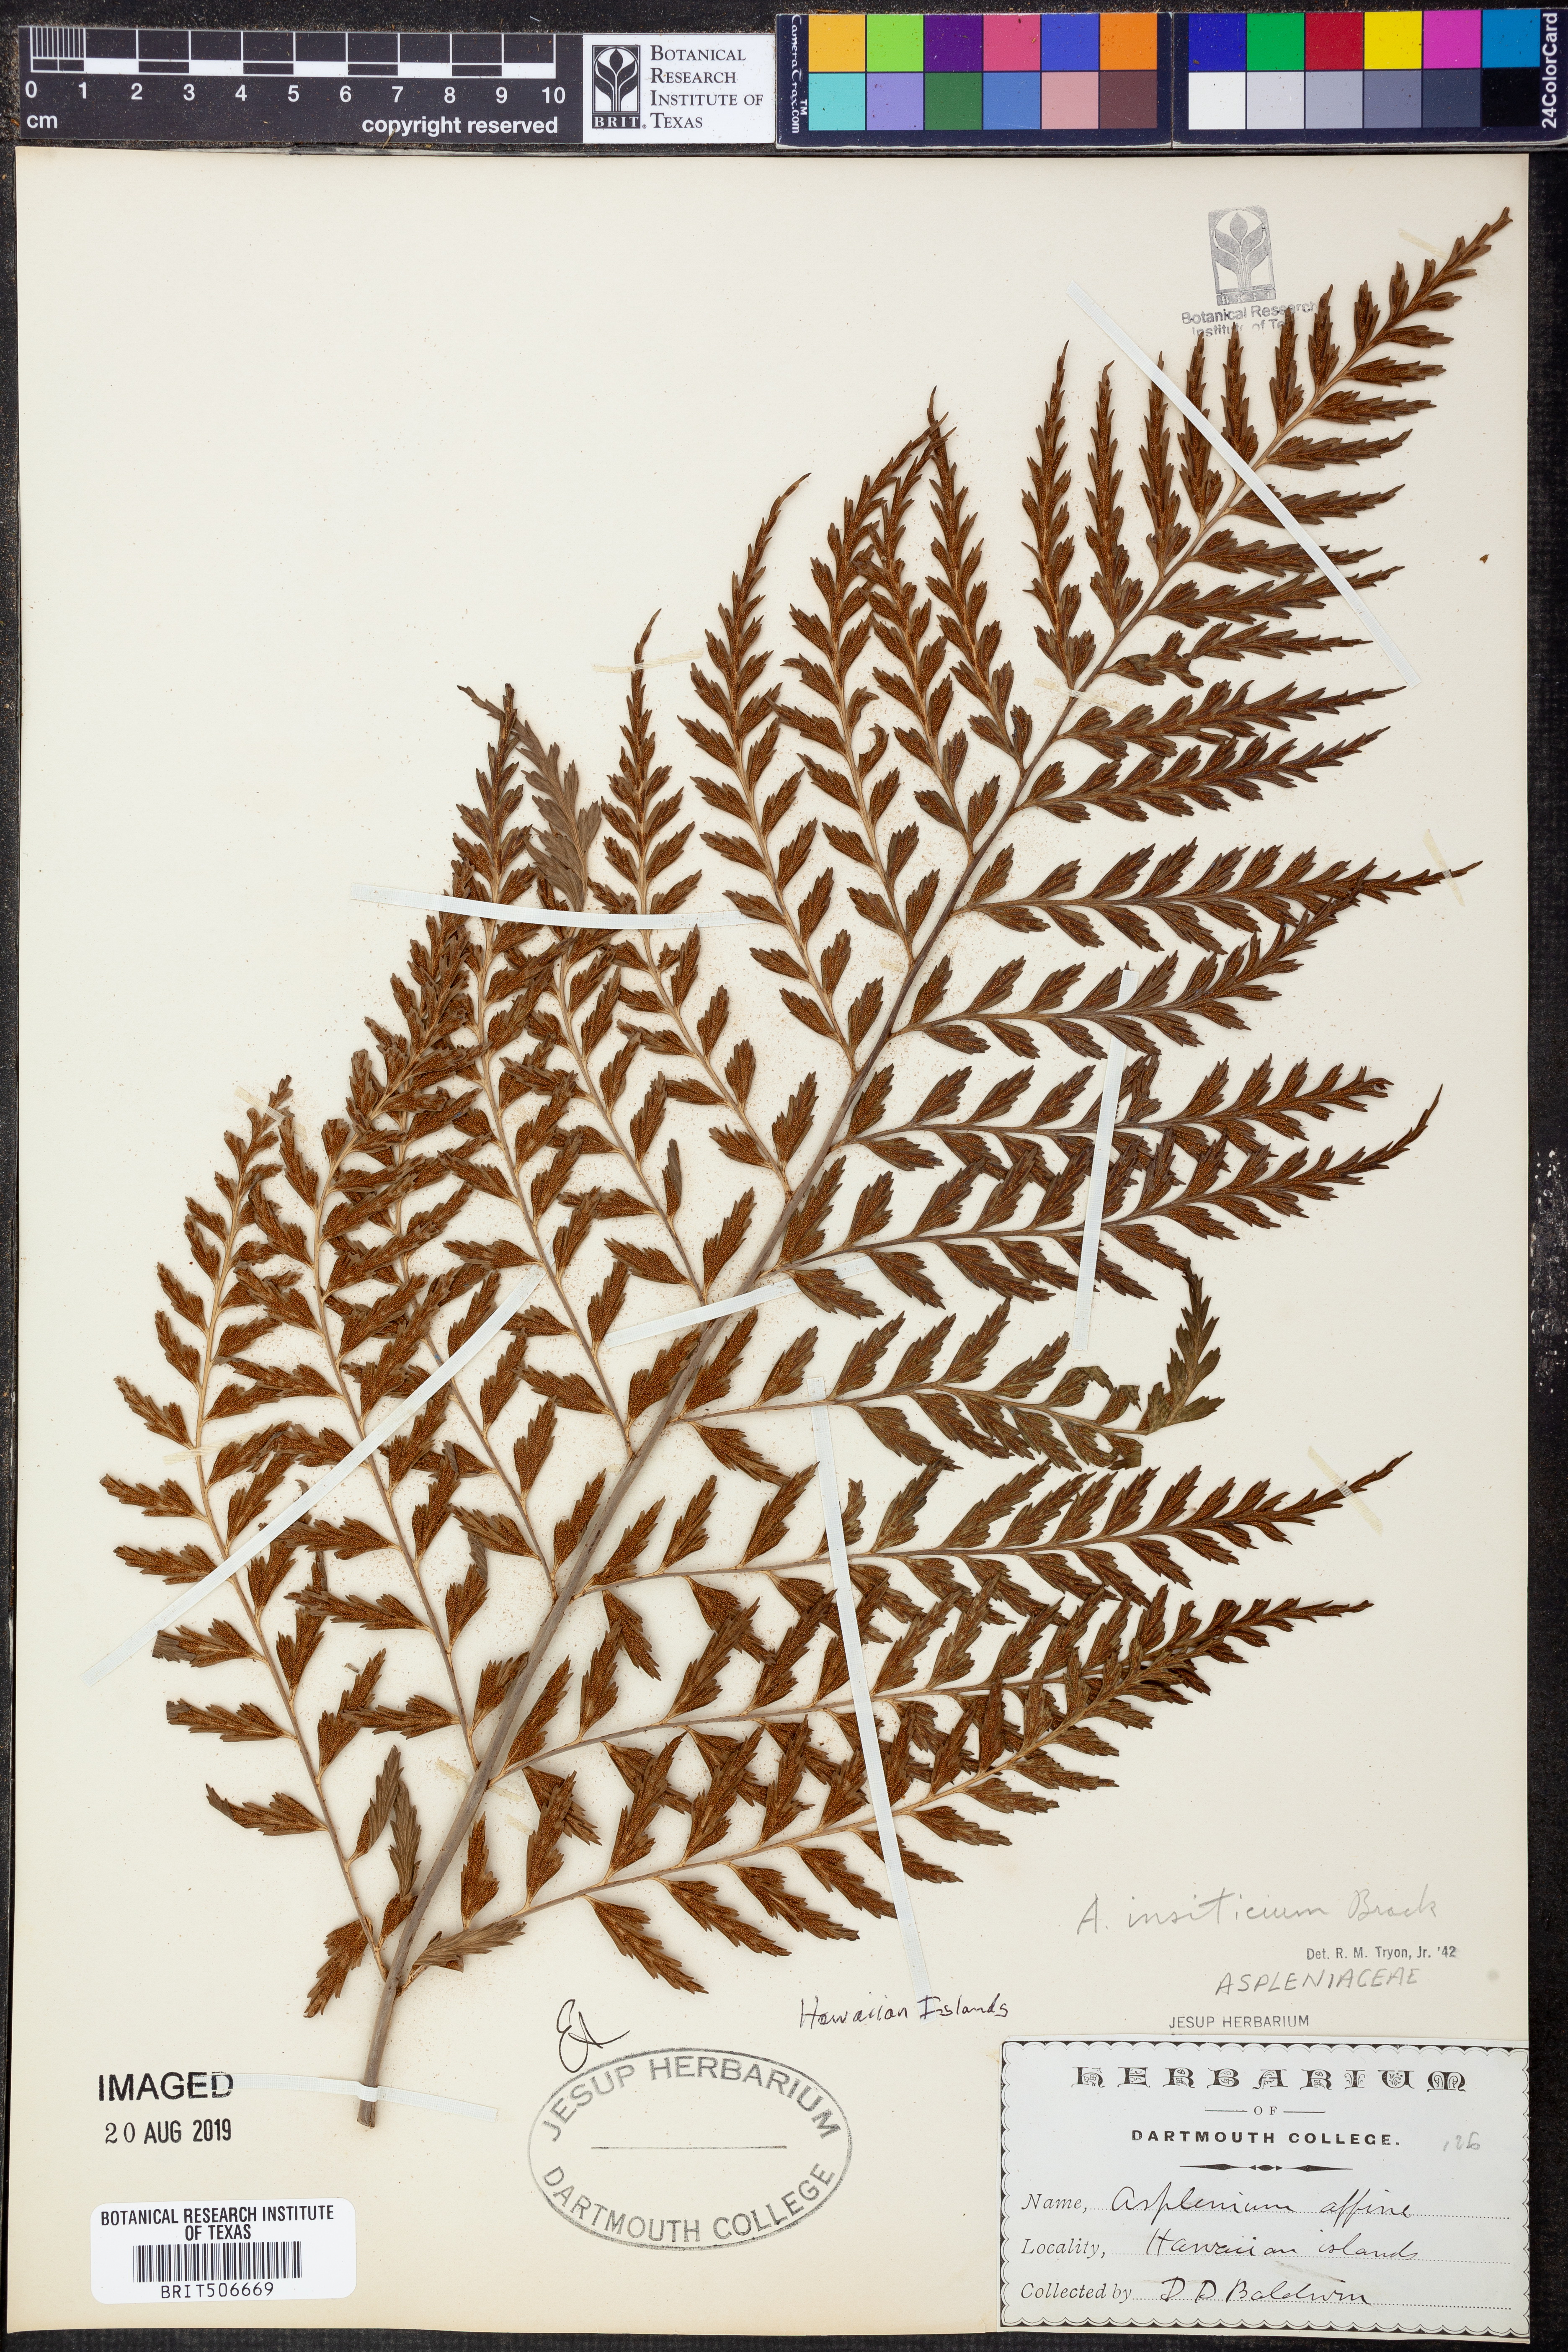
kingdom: Plantae
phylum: Tracheophyta
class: Polypodiopsida
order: Polypodiales
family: Aspleniaceae
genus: Asplenium
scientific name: Asplenium affine
